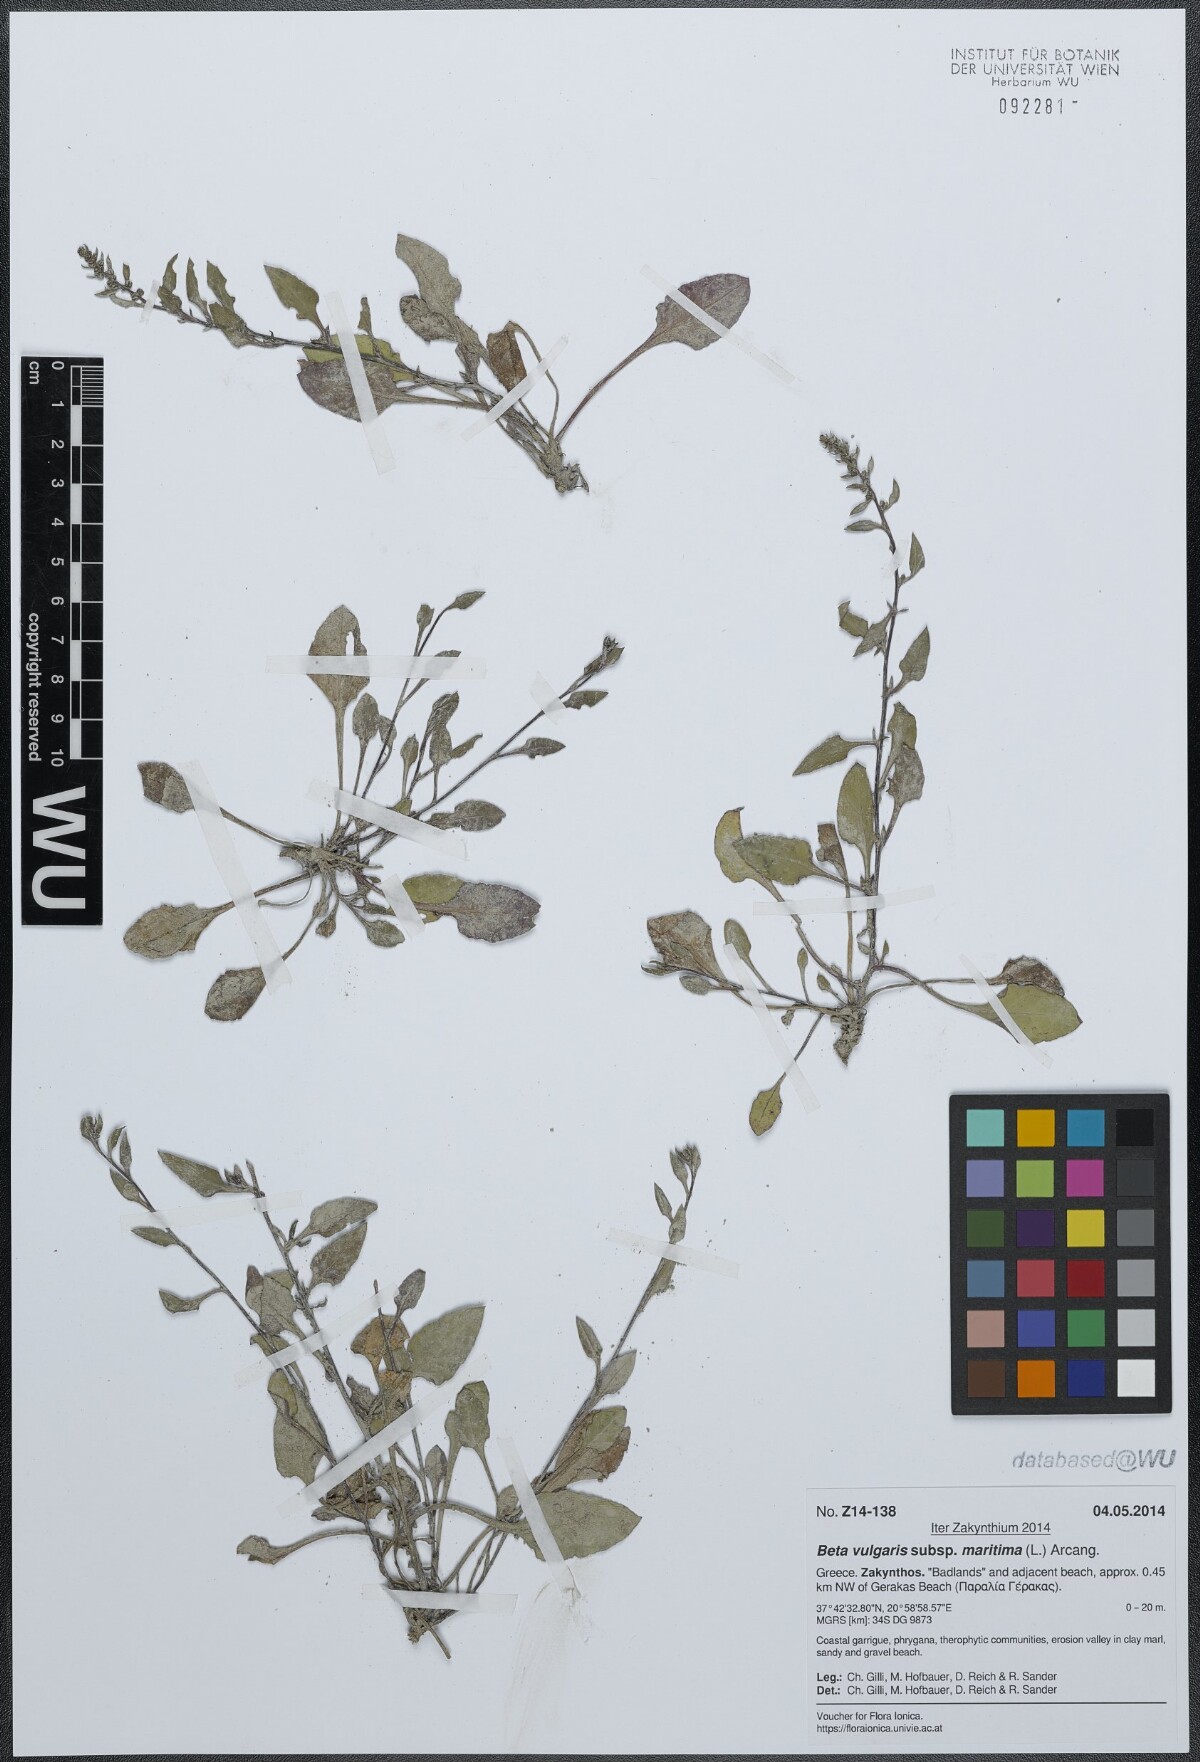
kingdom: Plantae
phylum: Tracheophyta
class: Magnoliopsida
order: Caryophyllales
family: Amaranthaceae
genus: Beta
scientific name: Beta maritima
